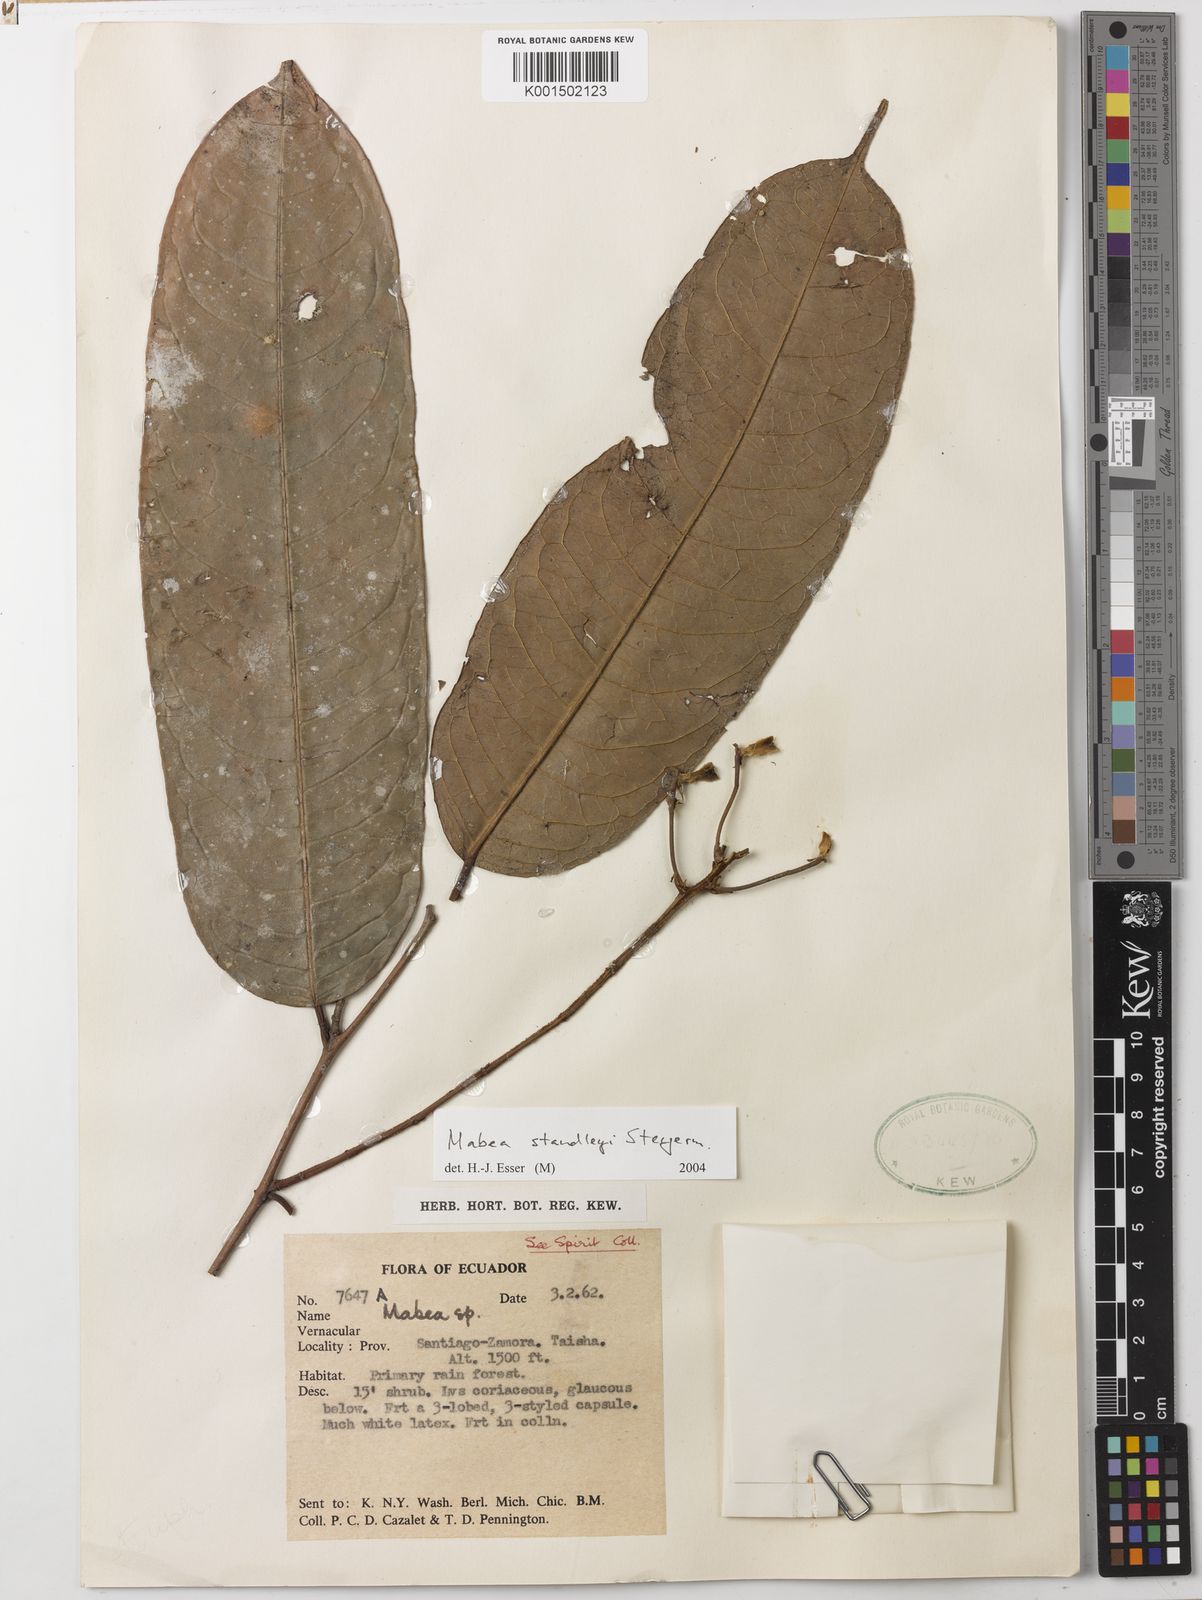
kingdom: Plantae
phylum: Tracheophyta
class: Magnoliopsida
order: Malpighiales
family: Euphorbiaceae
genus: Mabea
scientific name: Mabea standleyi
